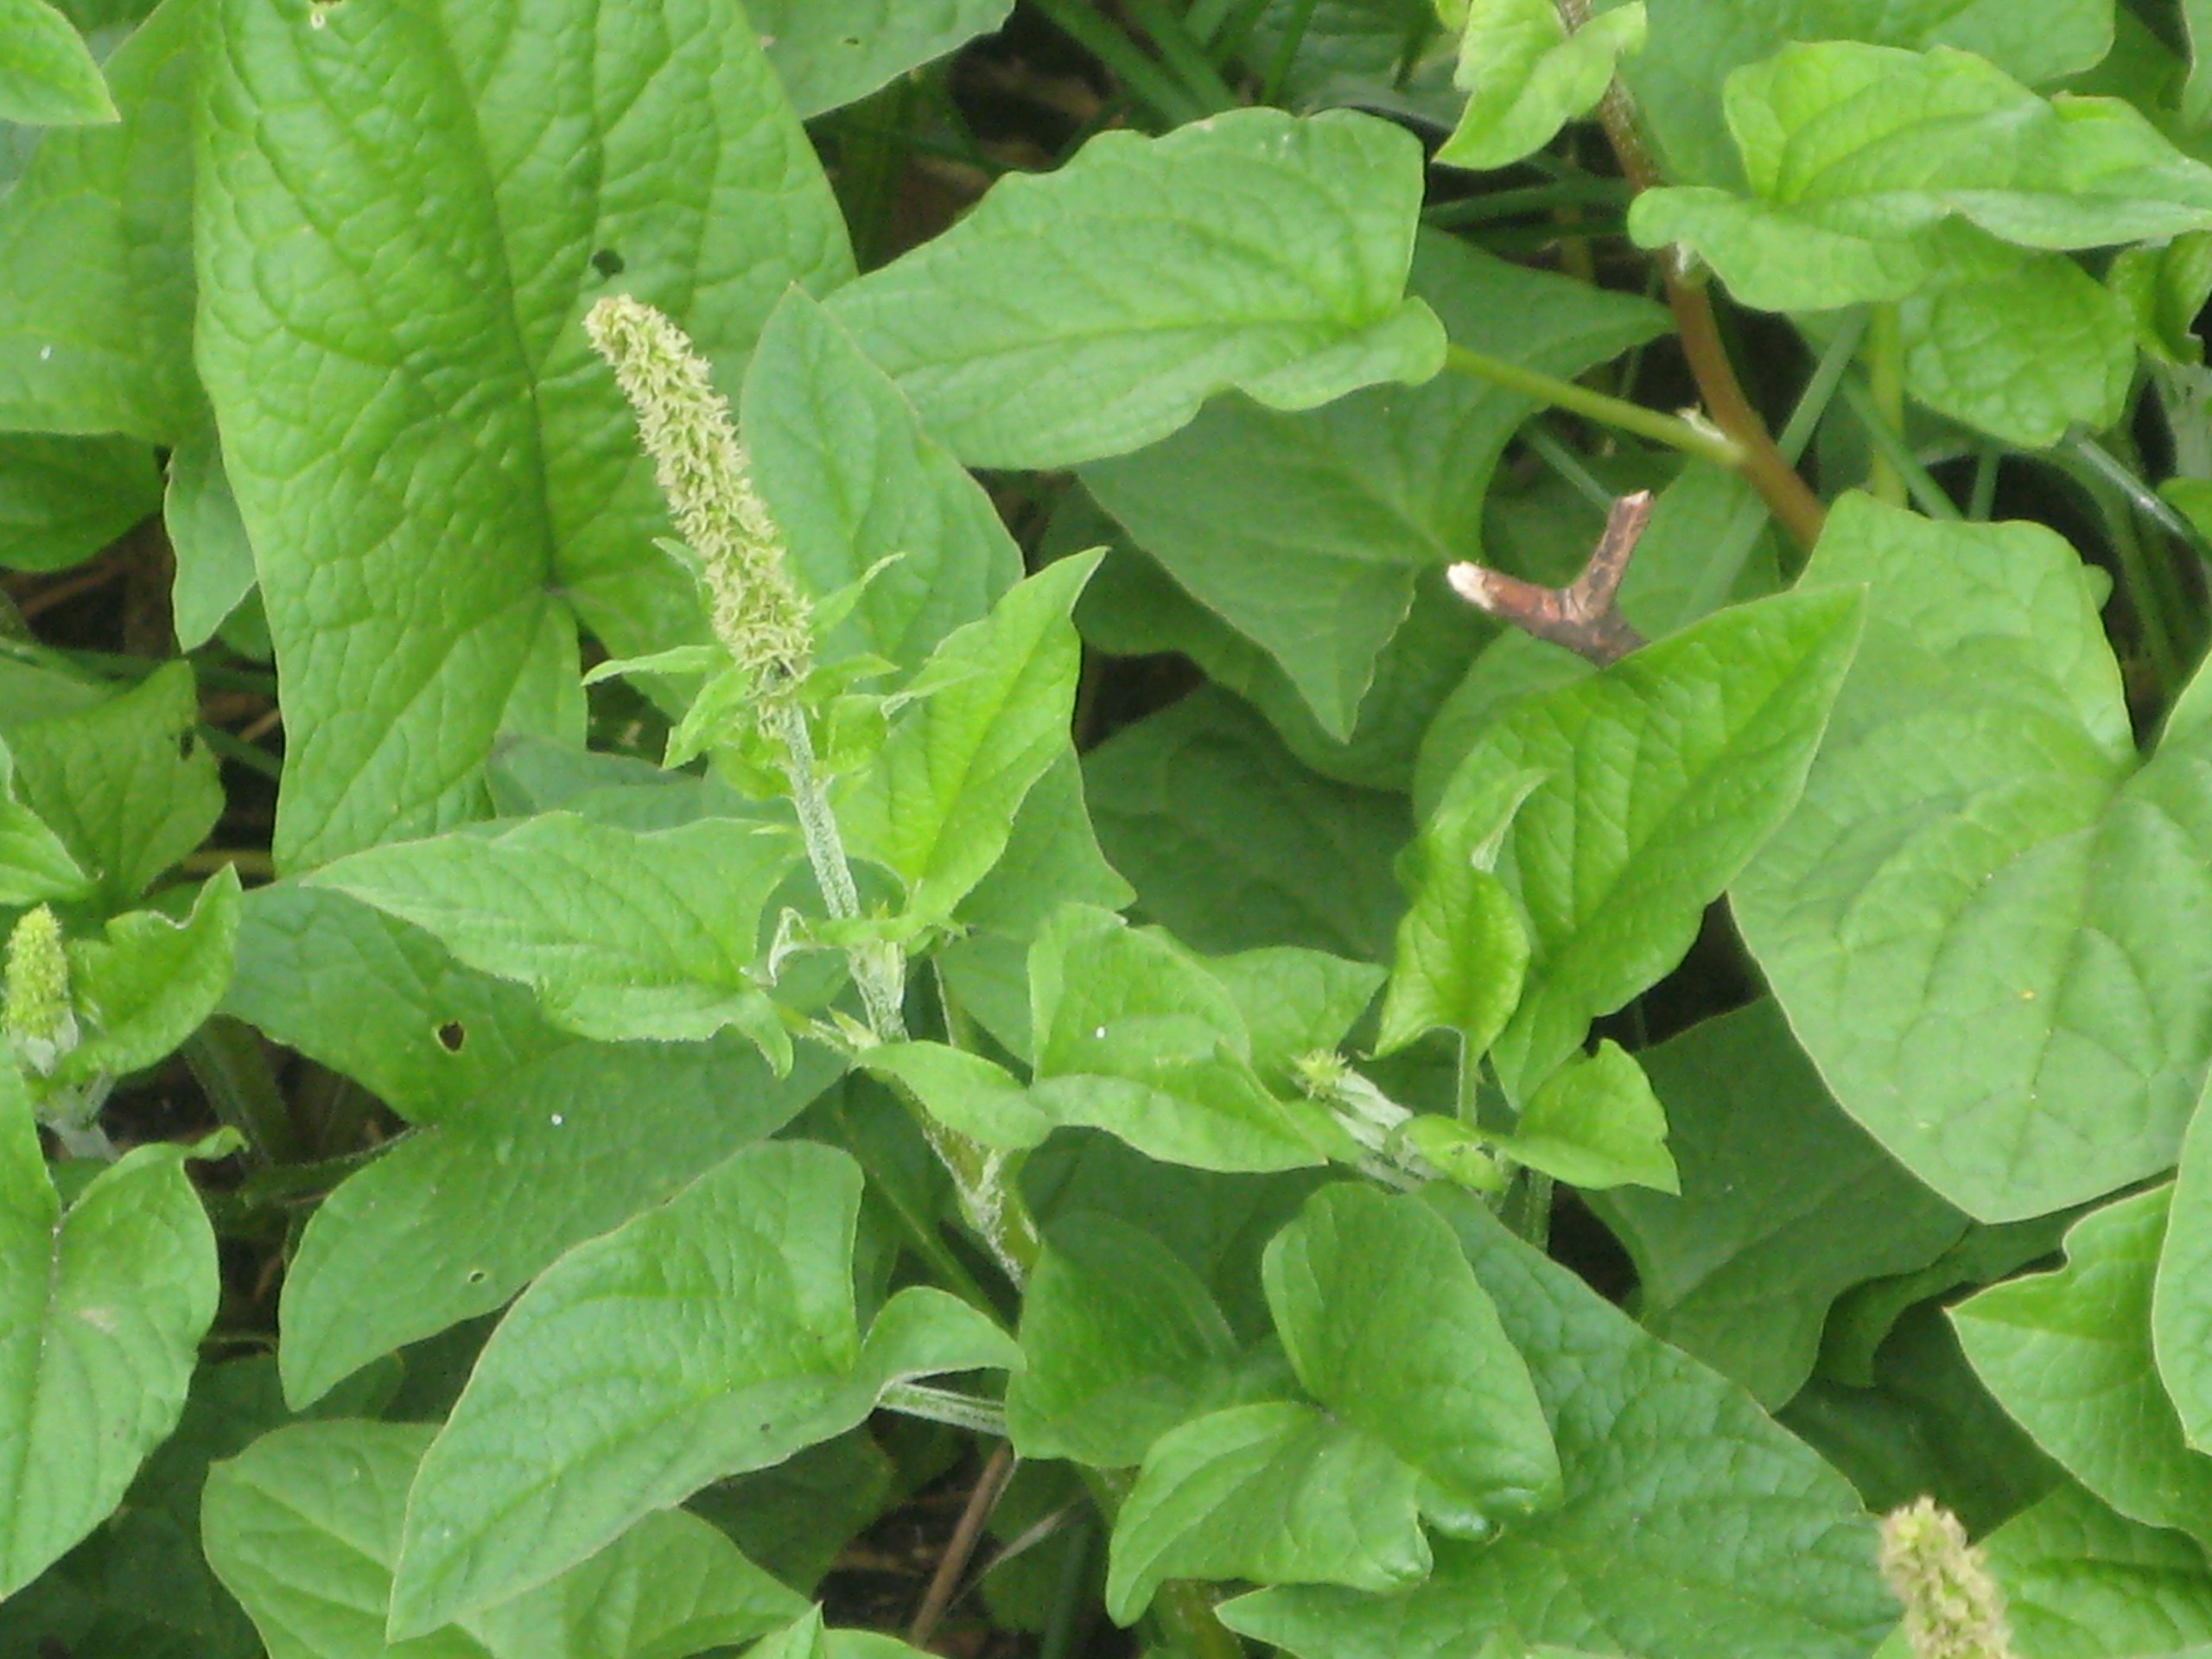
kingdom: Plantae
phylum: Tracheophyta
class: Magnoliopsida
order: Caryophyllales
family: Amaranthaceae
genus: Blitum
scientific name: Blitum bonus-henricus
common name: Stolthenriks-gåsefod
